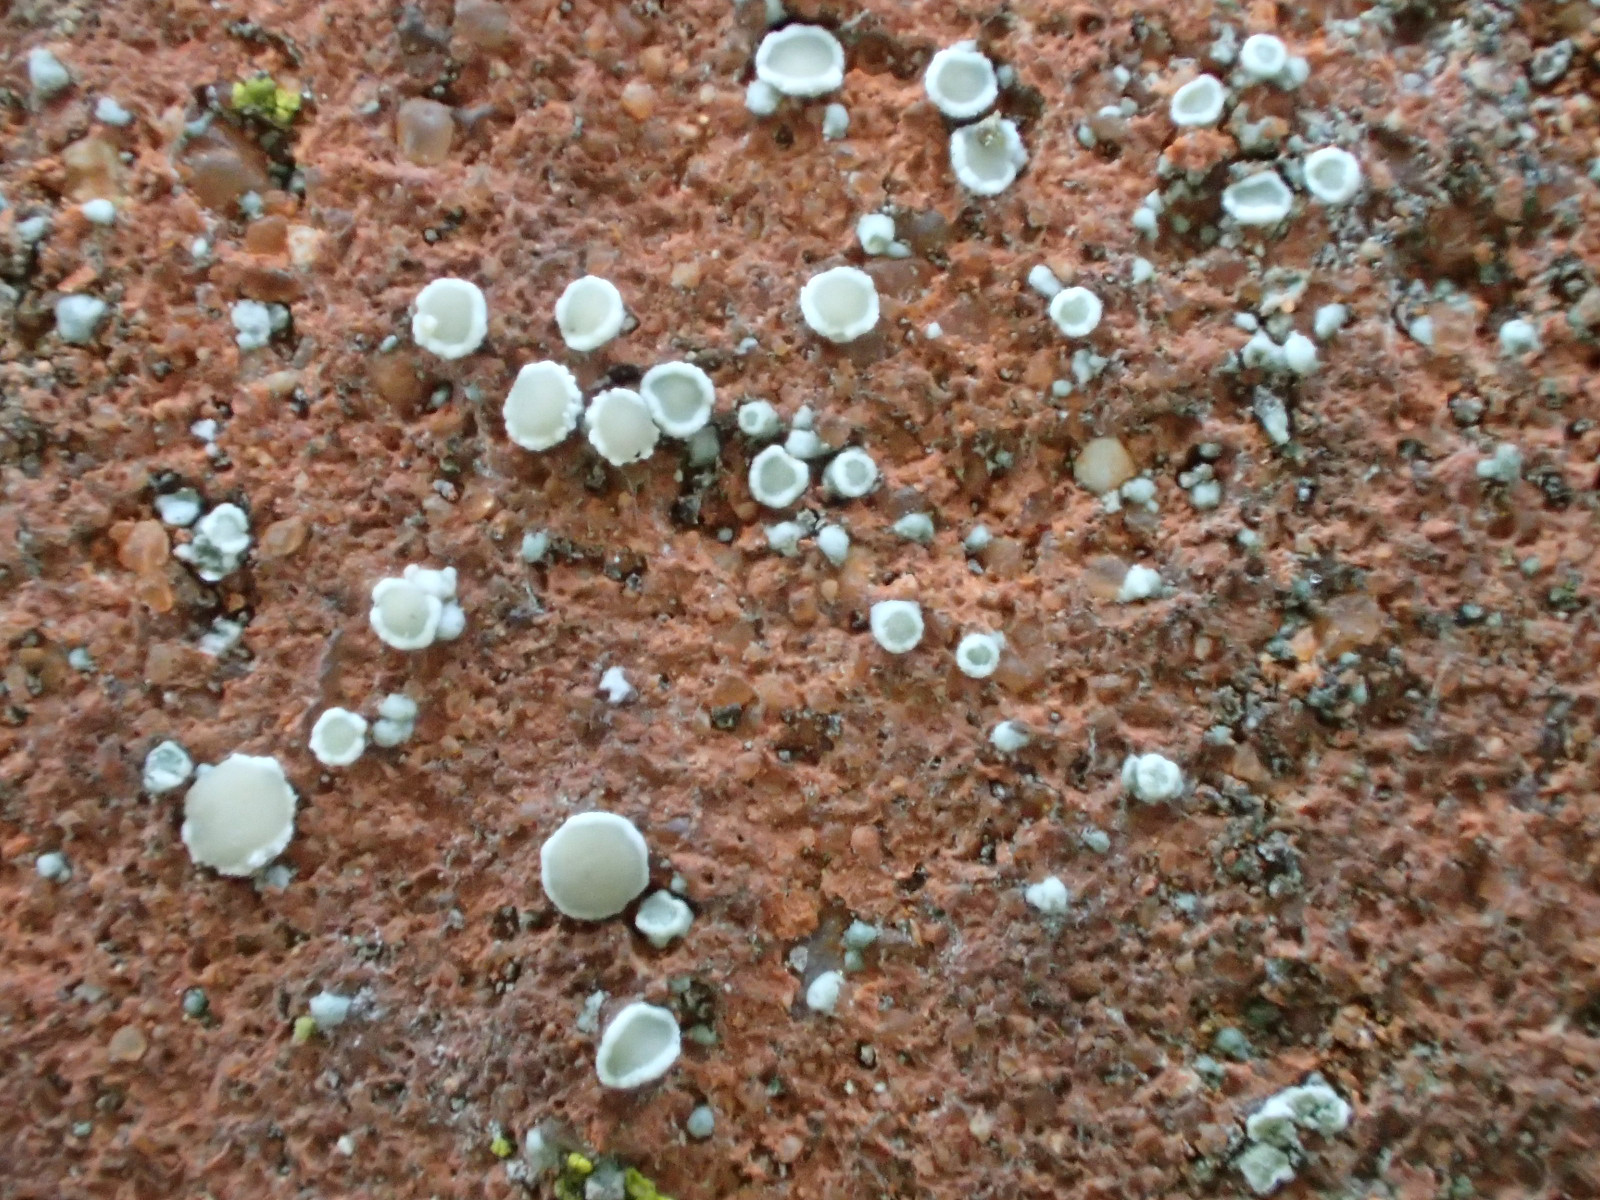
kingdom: Fungi
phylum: Ascomycota
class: Lecanoromycetes
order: Lecanorales
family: Lecanoraceae
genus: Polyozosia
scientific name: Polyozosia dispersa
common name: spredt kantskivelav
